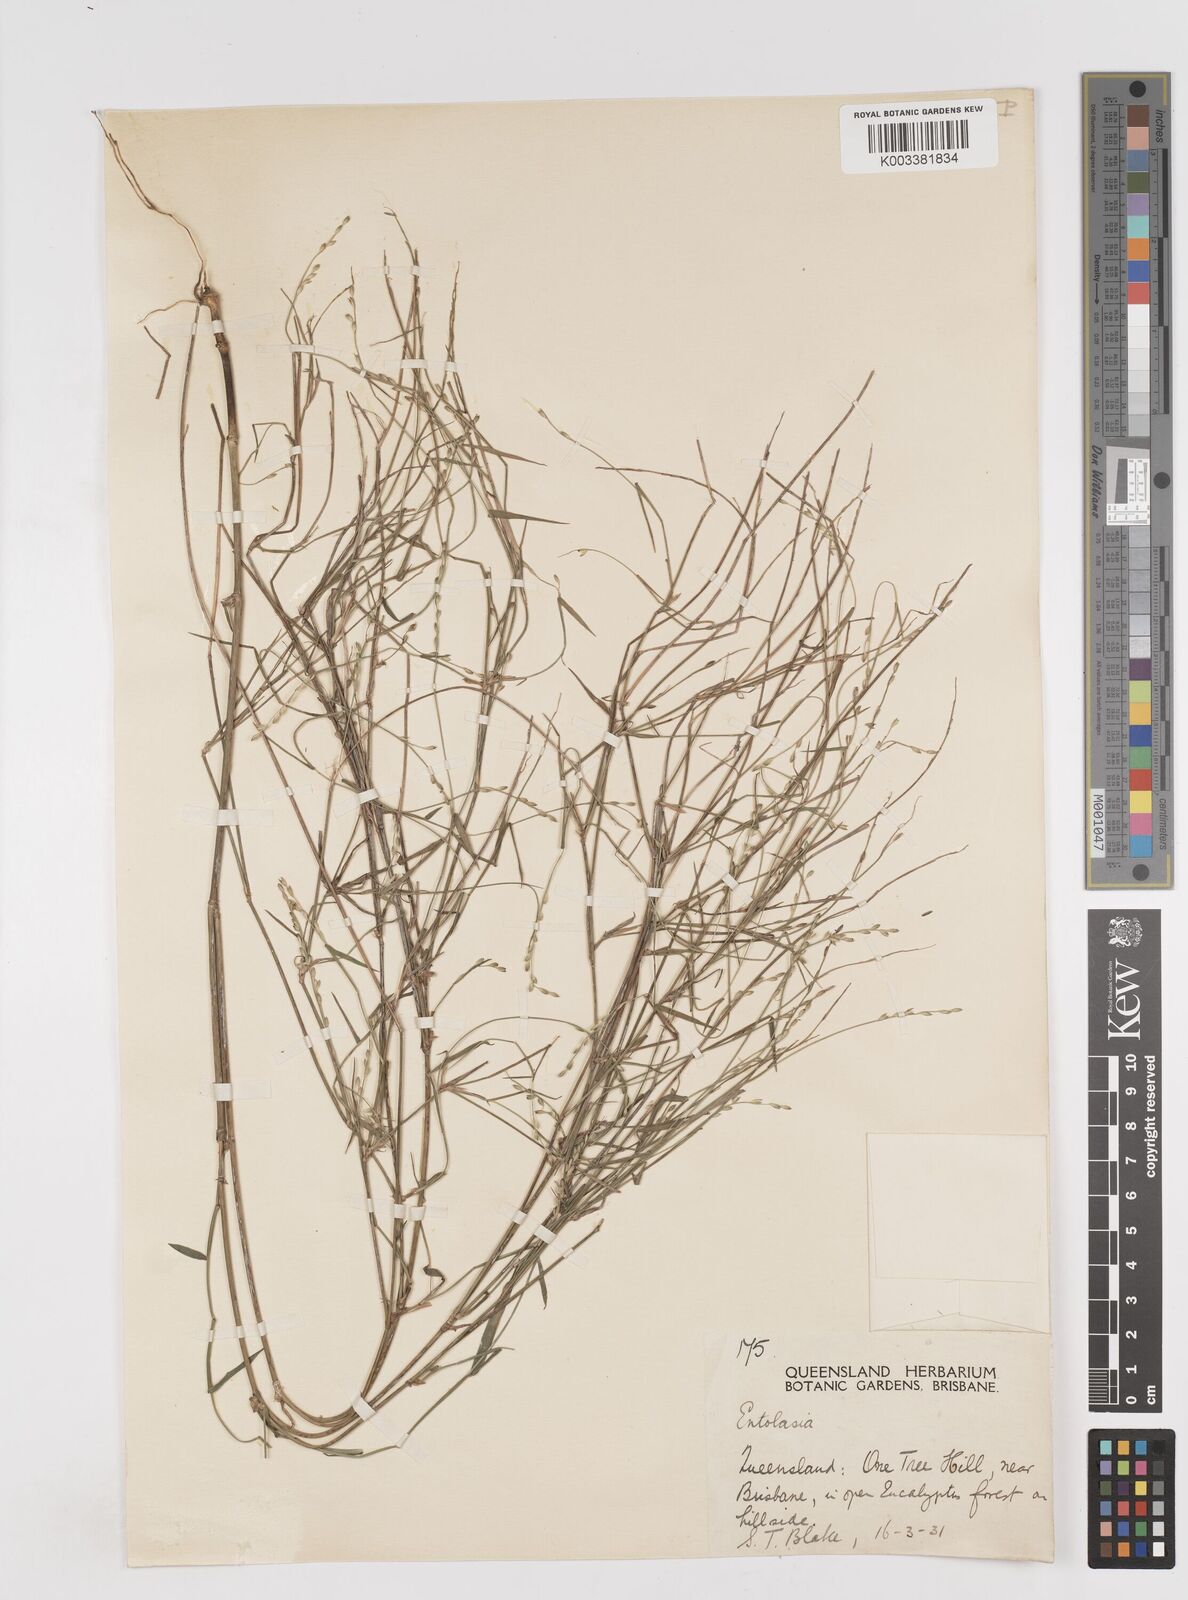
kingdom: Plantae
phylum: Tracheophyta
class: Liliopsida
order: Poales
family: Poaceae
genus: Entolasia
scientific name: Entolasia
